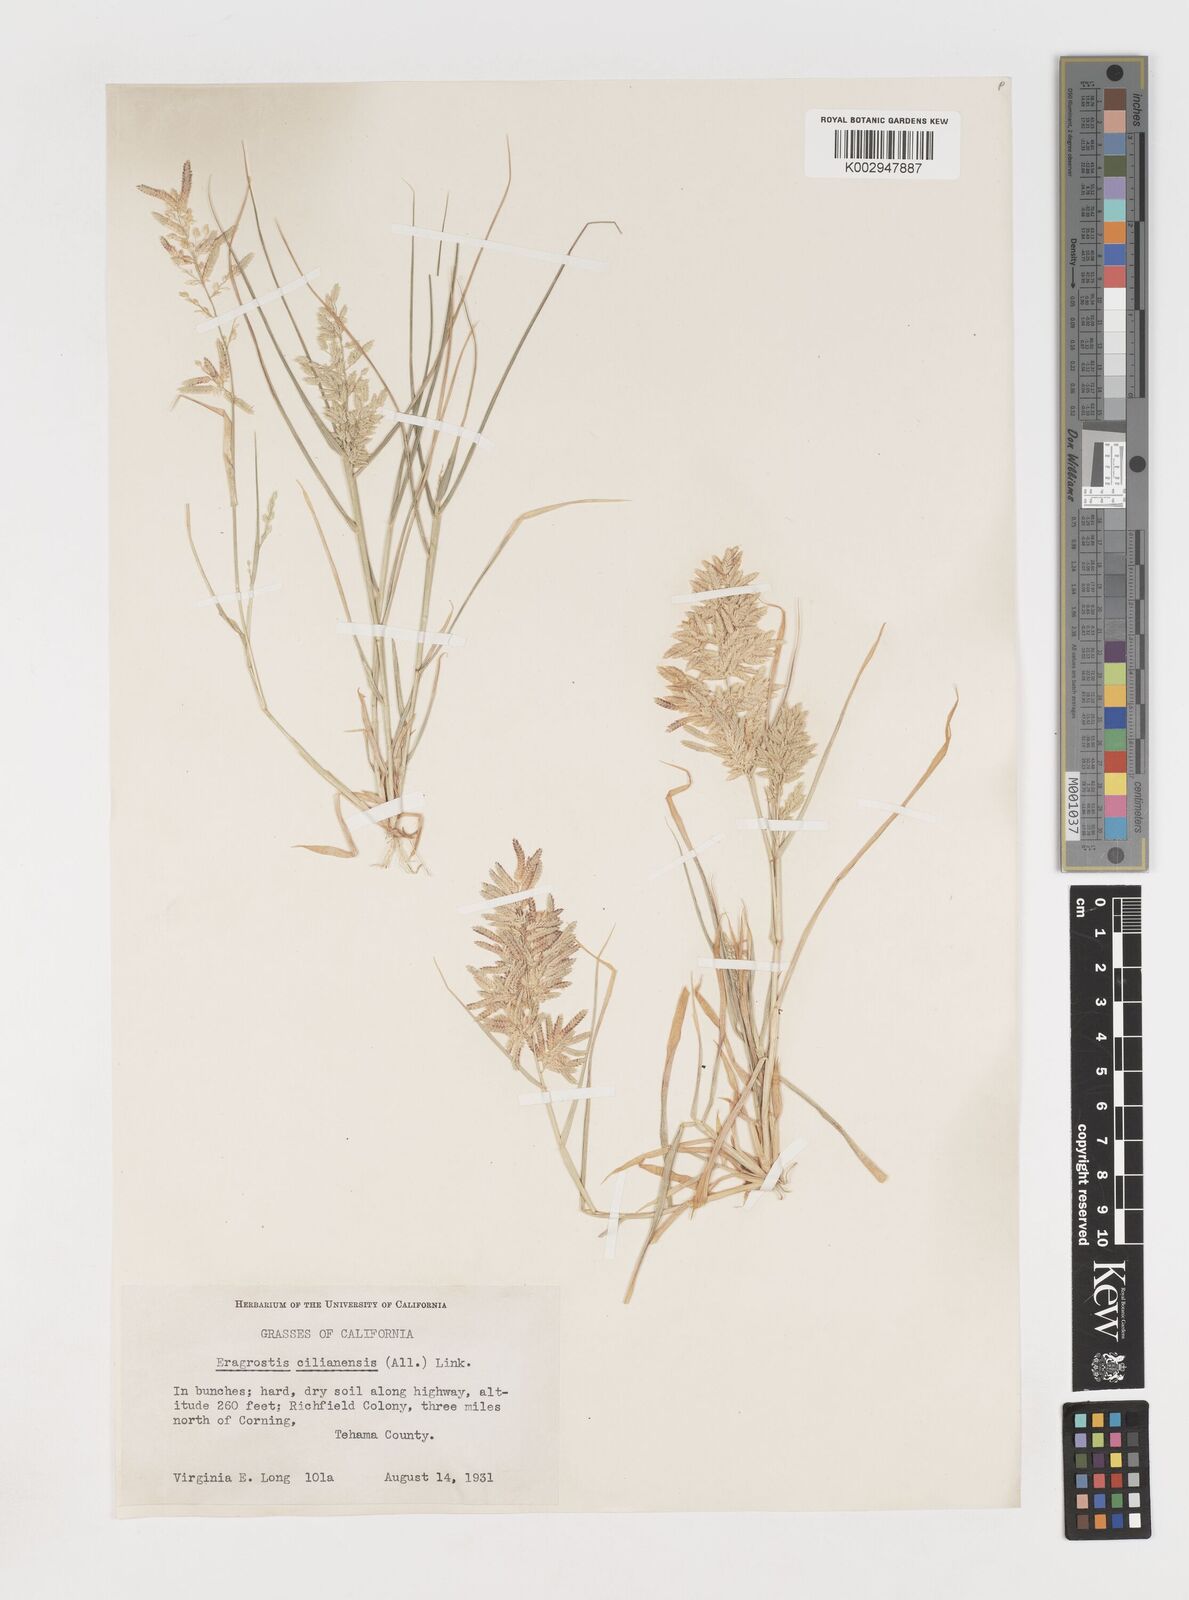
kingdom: Plantae
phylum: Tracheophyta
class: Liliopsida
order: Poales
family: Poaceae
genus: Eragrostis
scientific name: Eragrostis cilianensis
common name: Stinkgrass
